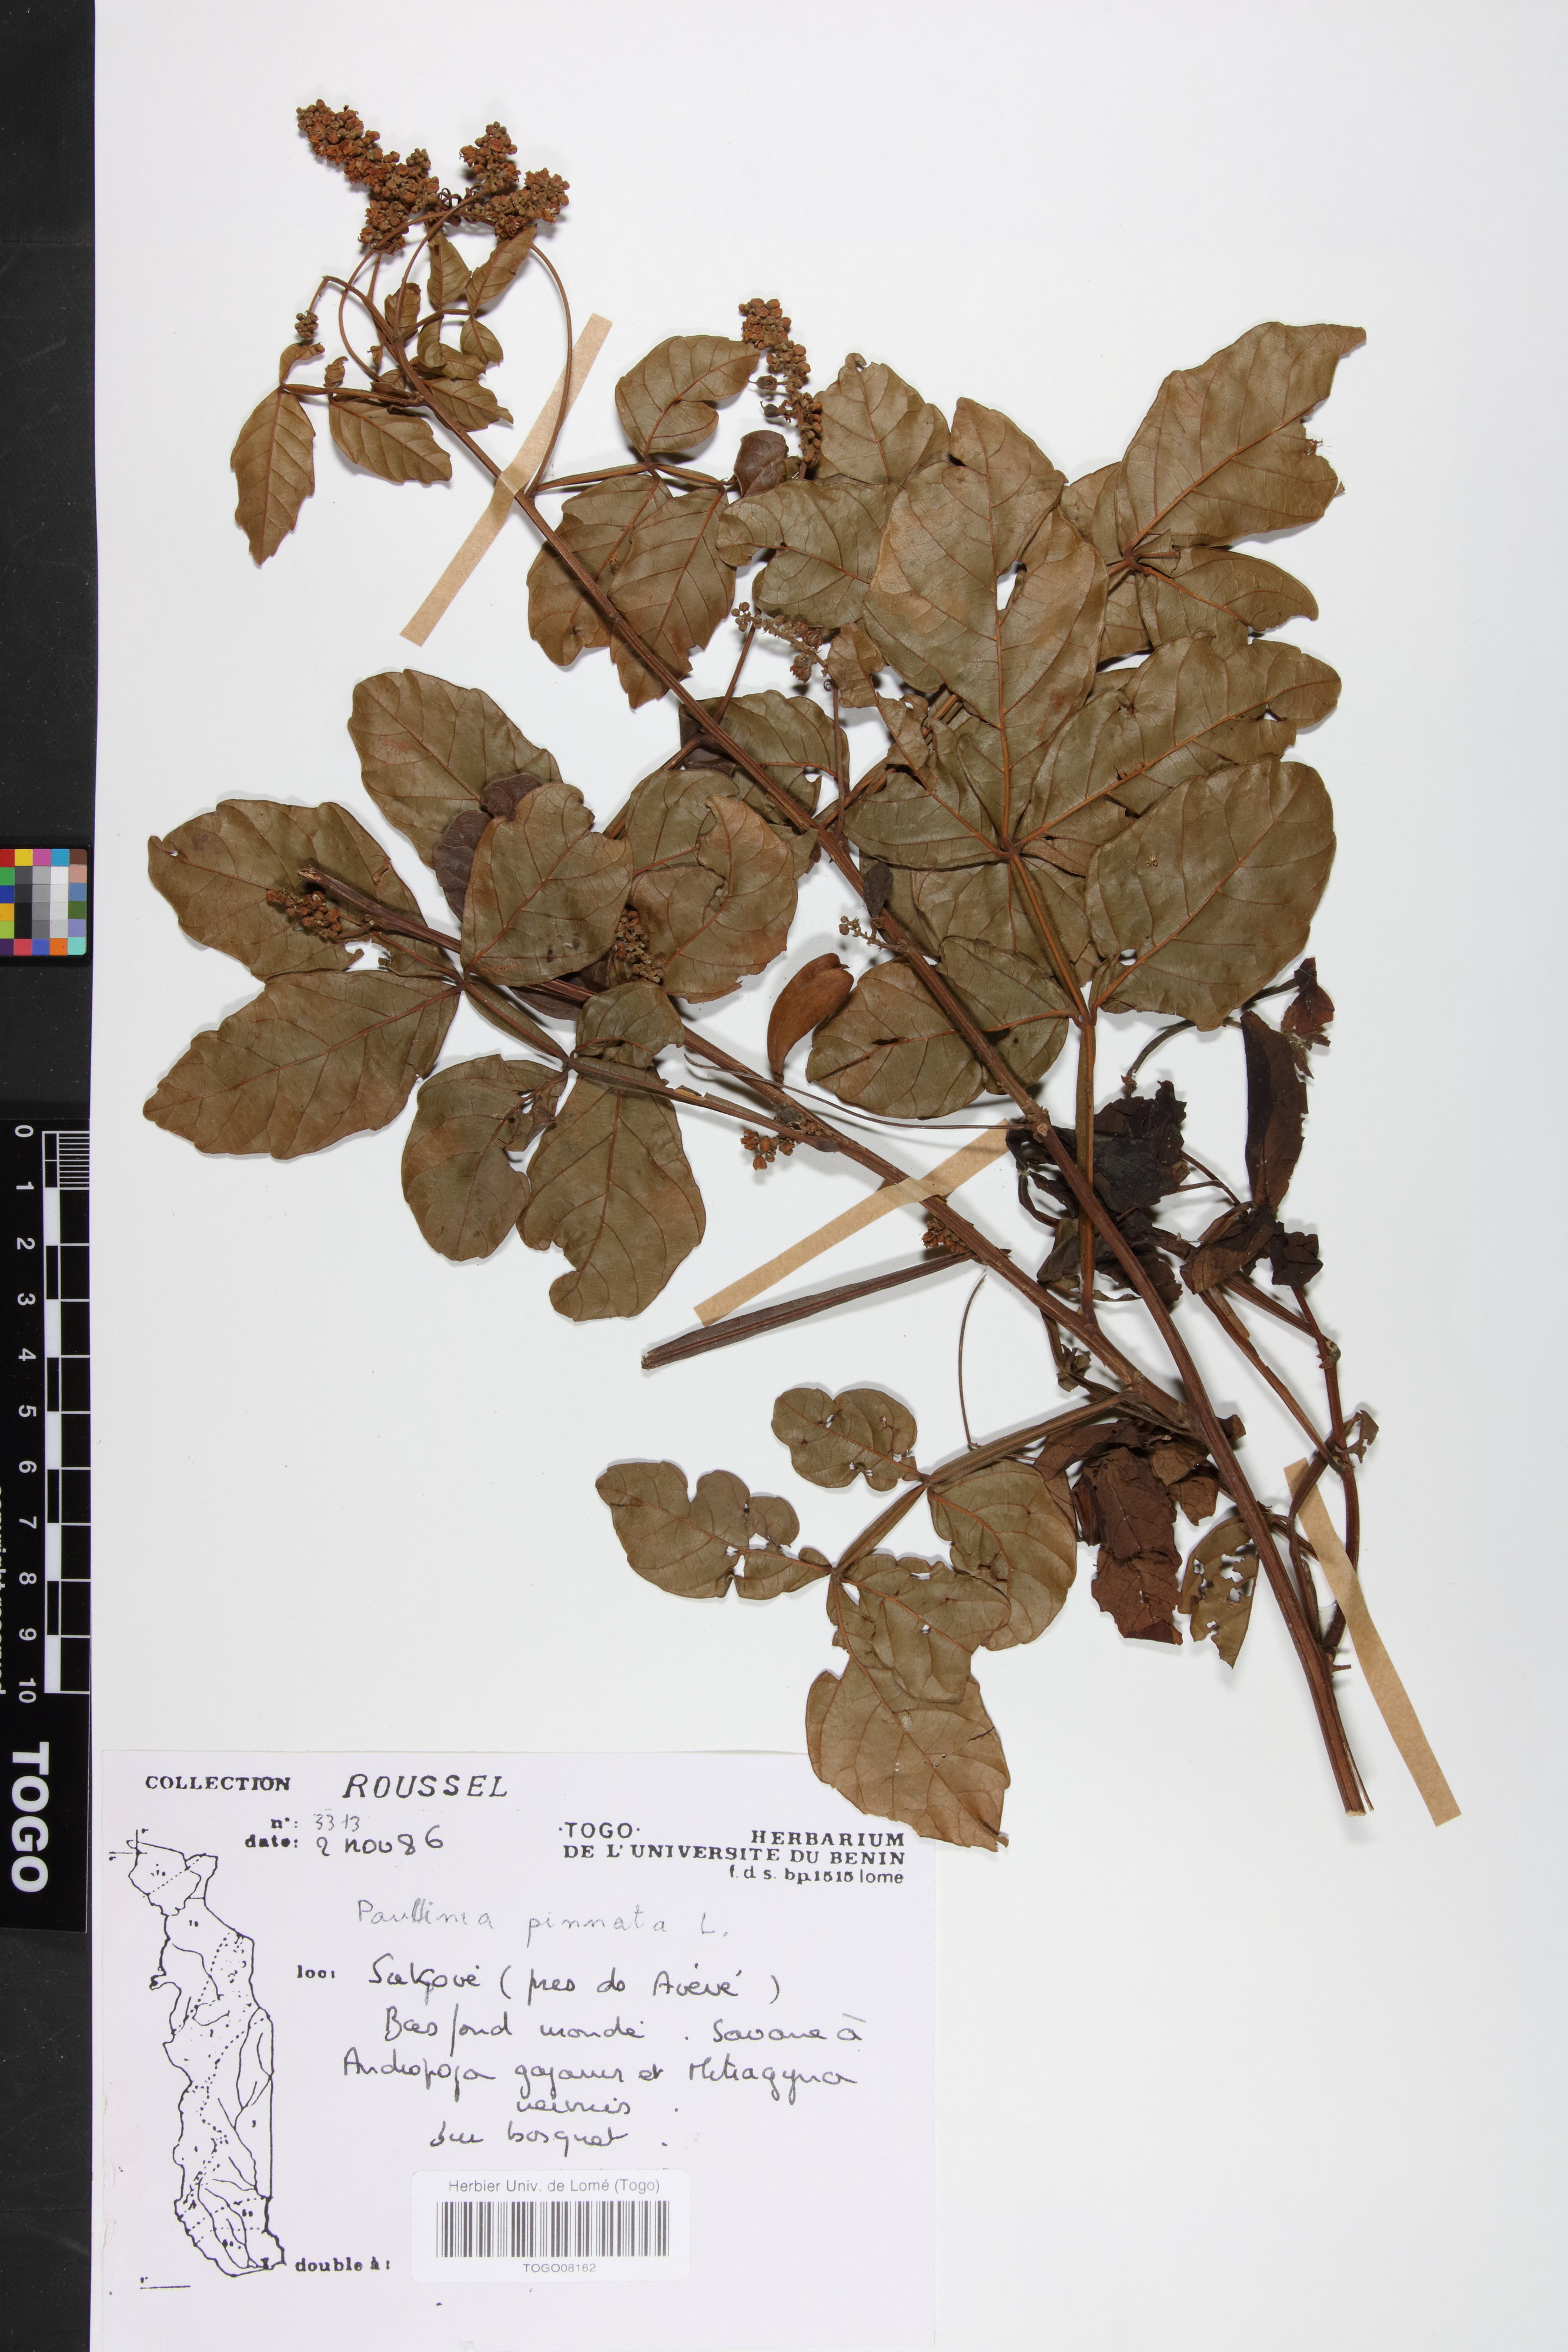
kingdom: Plantae
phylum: Tracheophyta
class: Magnoliopsida
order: Sapindales
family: Sapindaceae
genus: Paullinia
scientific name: Paullinia pinnata
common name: Barbasco
